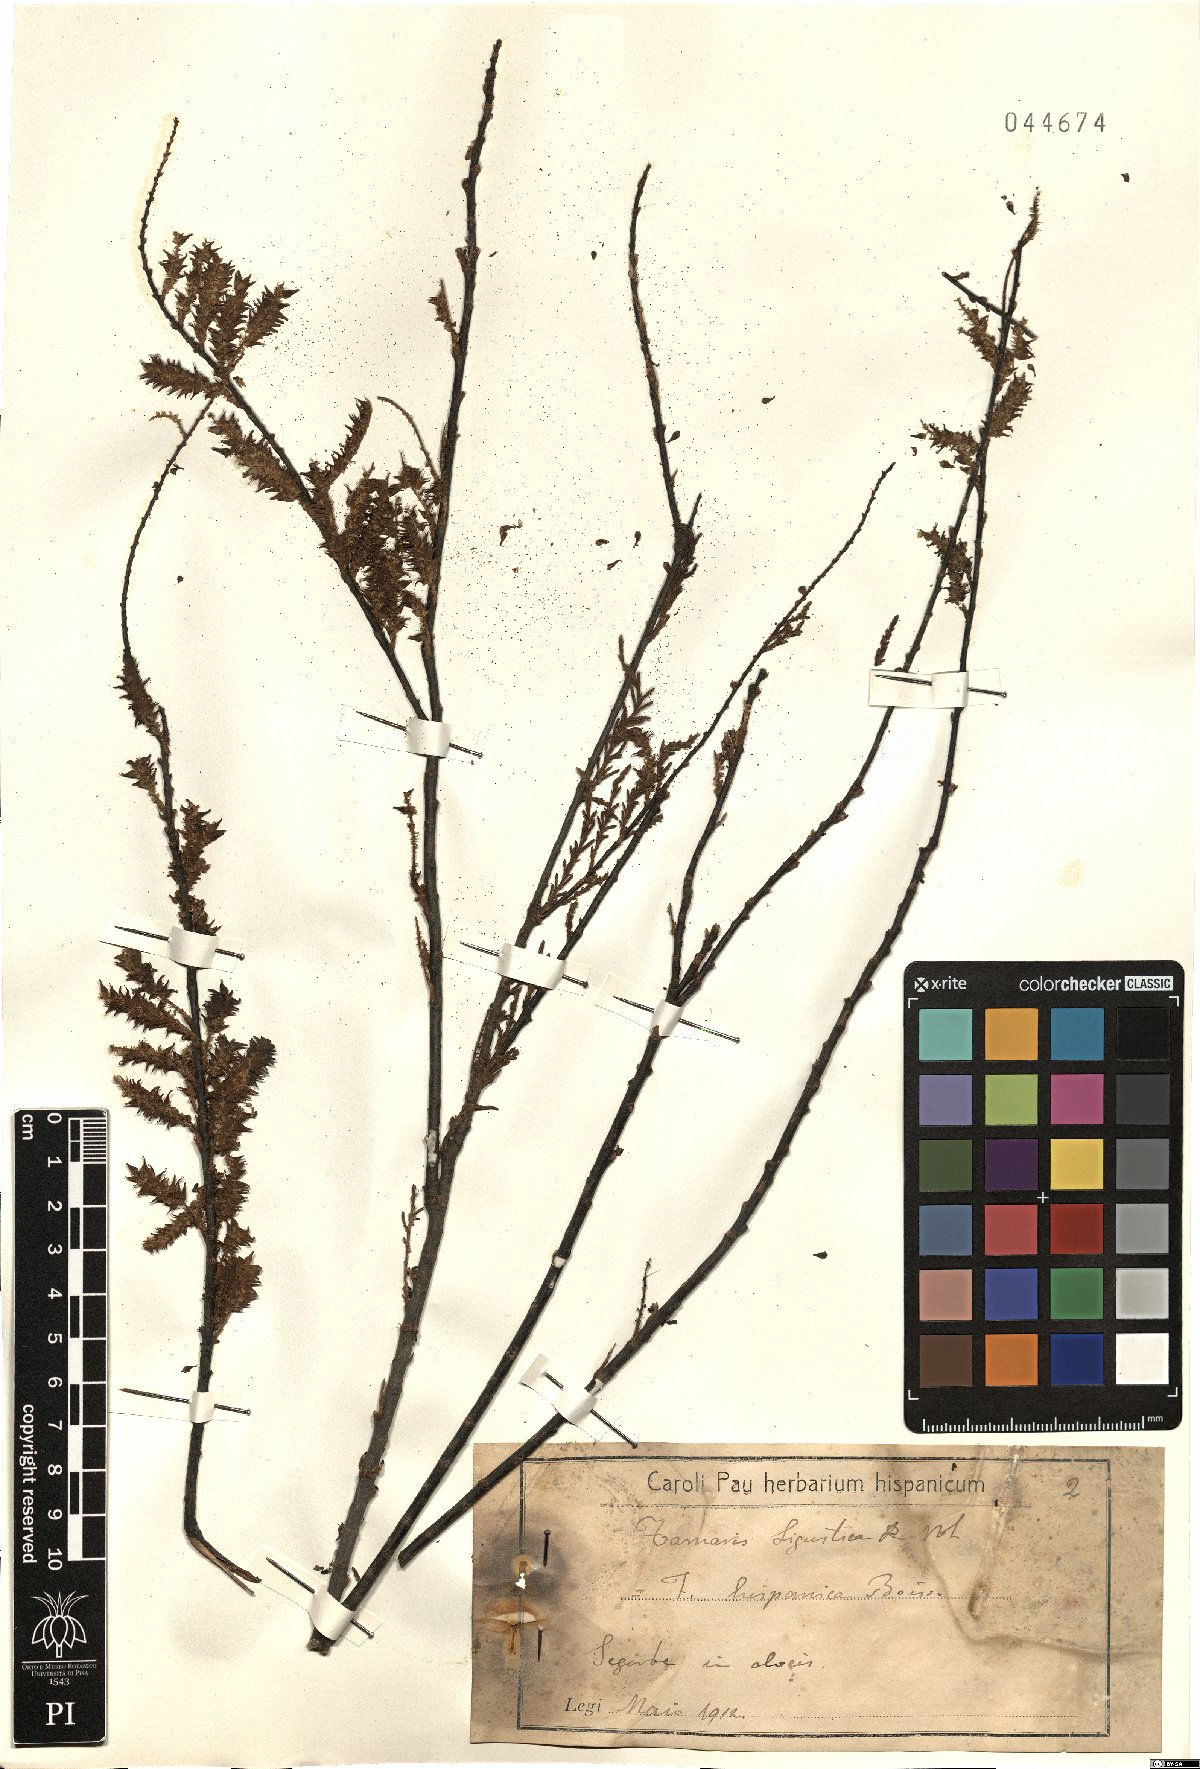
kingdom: Plantae
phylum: Tracheophyta
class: Magnoliopsida
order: Caryophyllales
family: Tamaricaceae
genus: Tamarix
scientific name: Tamarix
